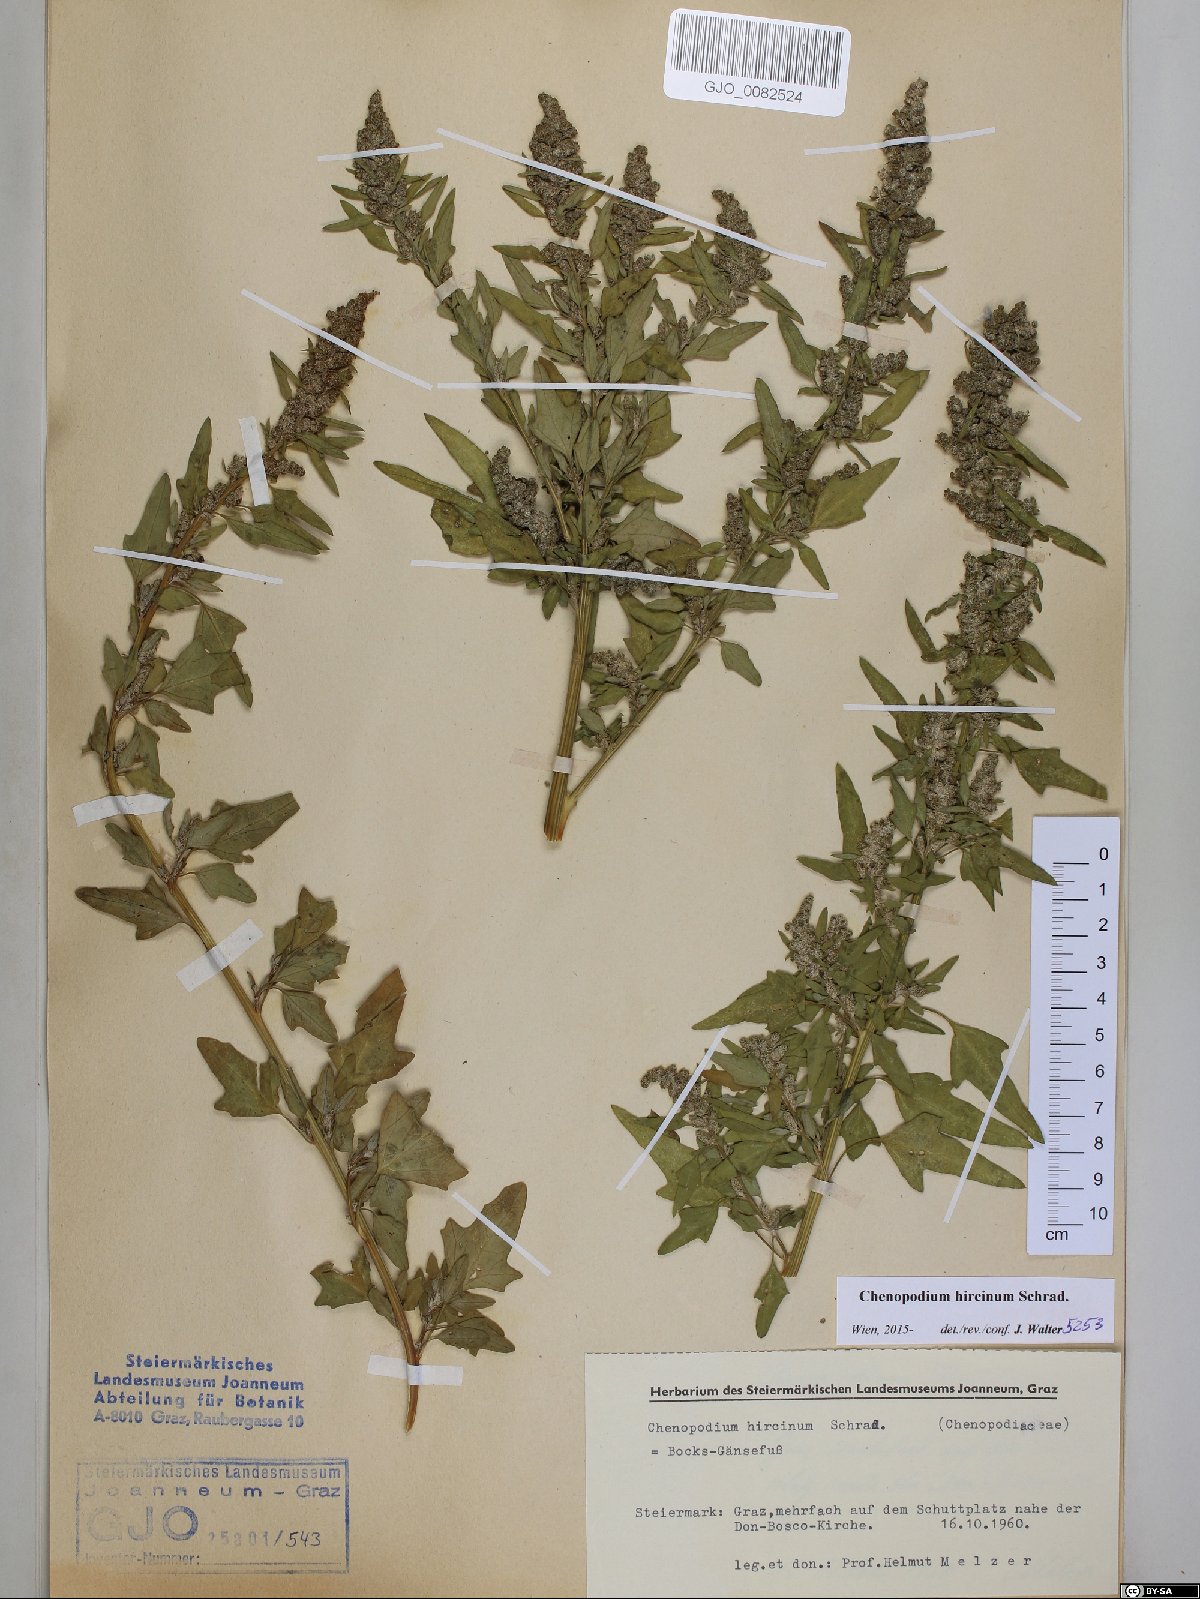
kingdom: Plantae
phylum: Tracheophyta
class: Magnoliopsida
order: Caryophyllales
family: Amaranthaceae
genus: Chenopodium
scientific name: Chenopodium hircinum
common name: Foetid goosefoot
